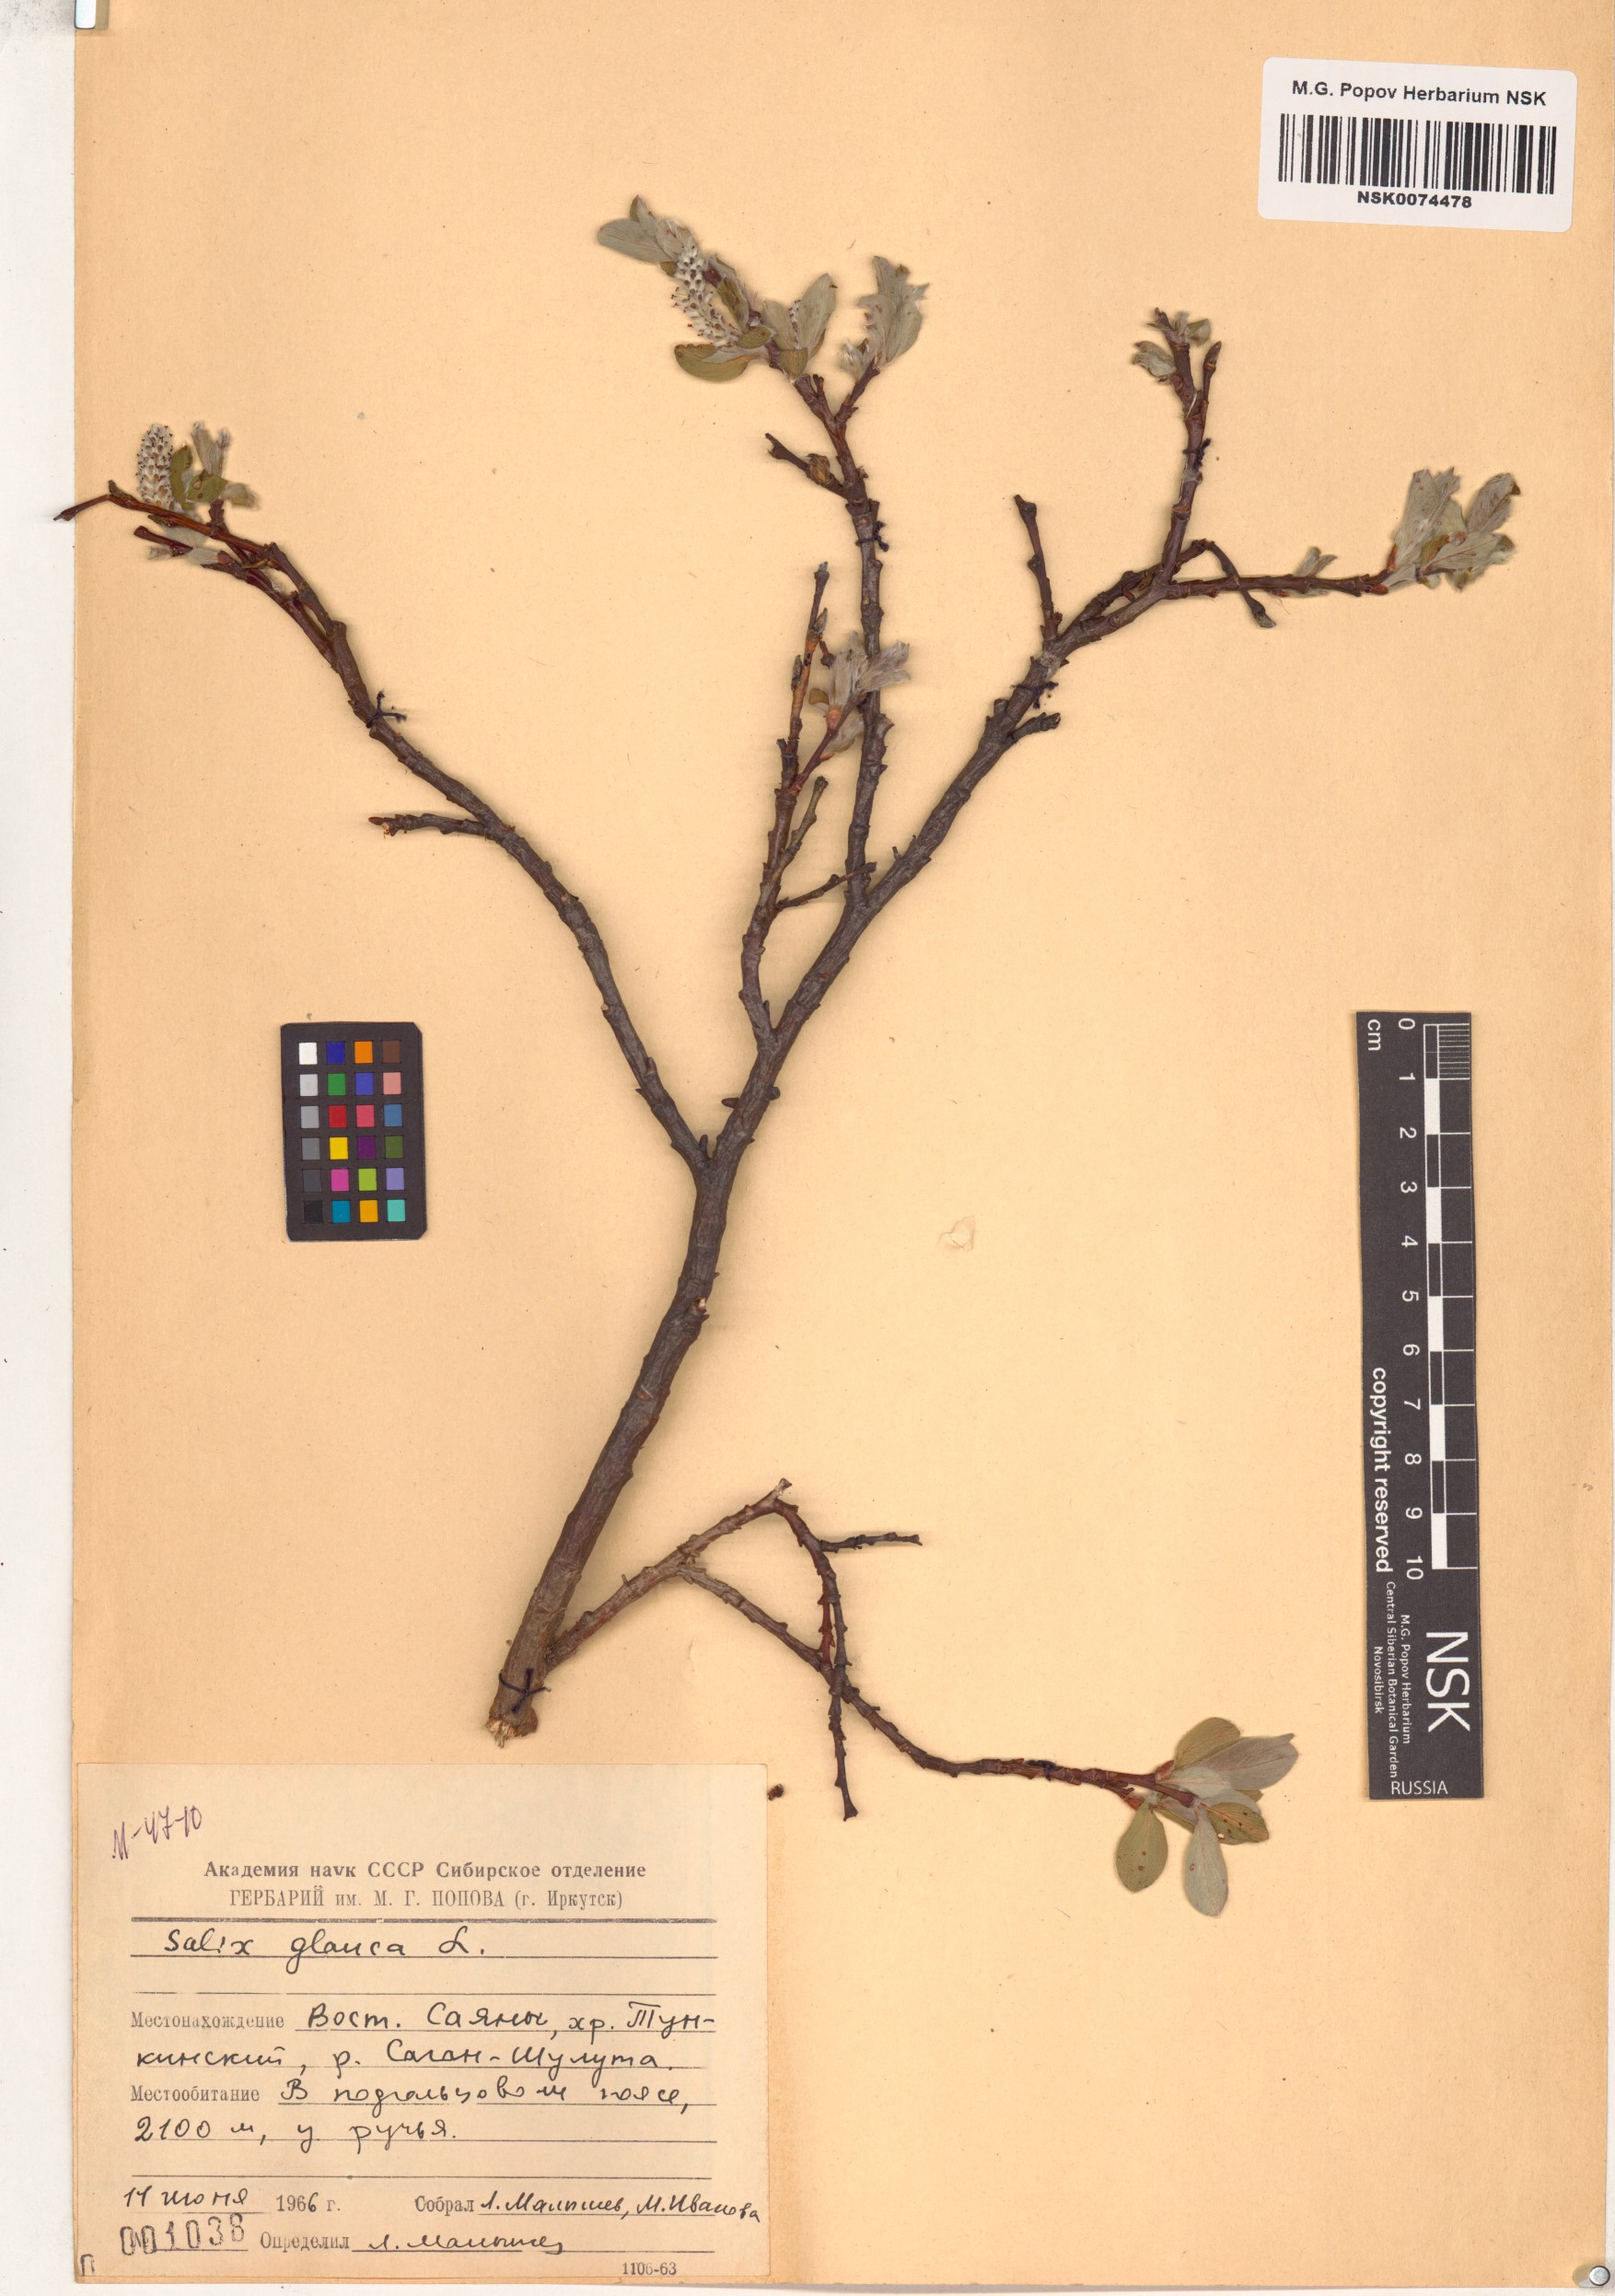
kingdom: Plantae
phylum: Tracheophyta
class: Magnoliopsida
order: Malpighiales
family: Salicaceae
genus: Salix
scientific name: Salix glauca
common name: Glaucous willow
